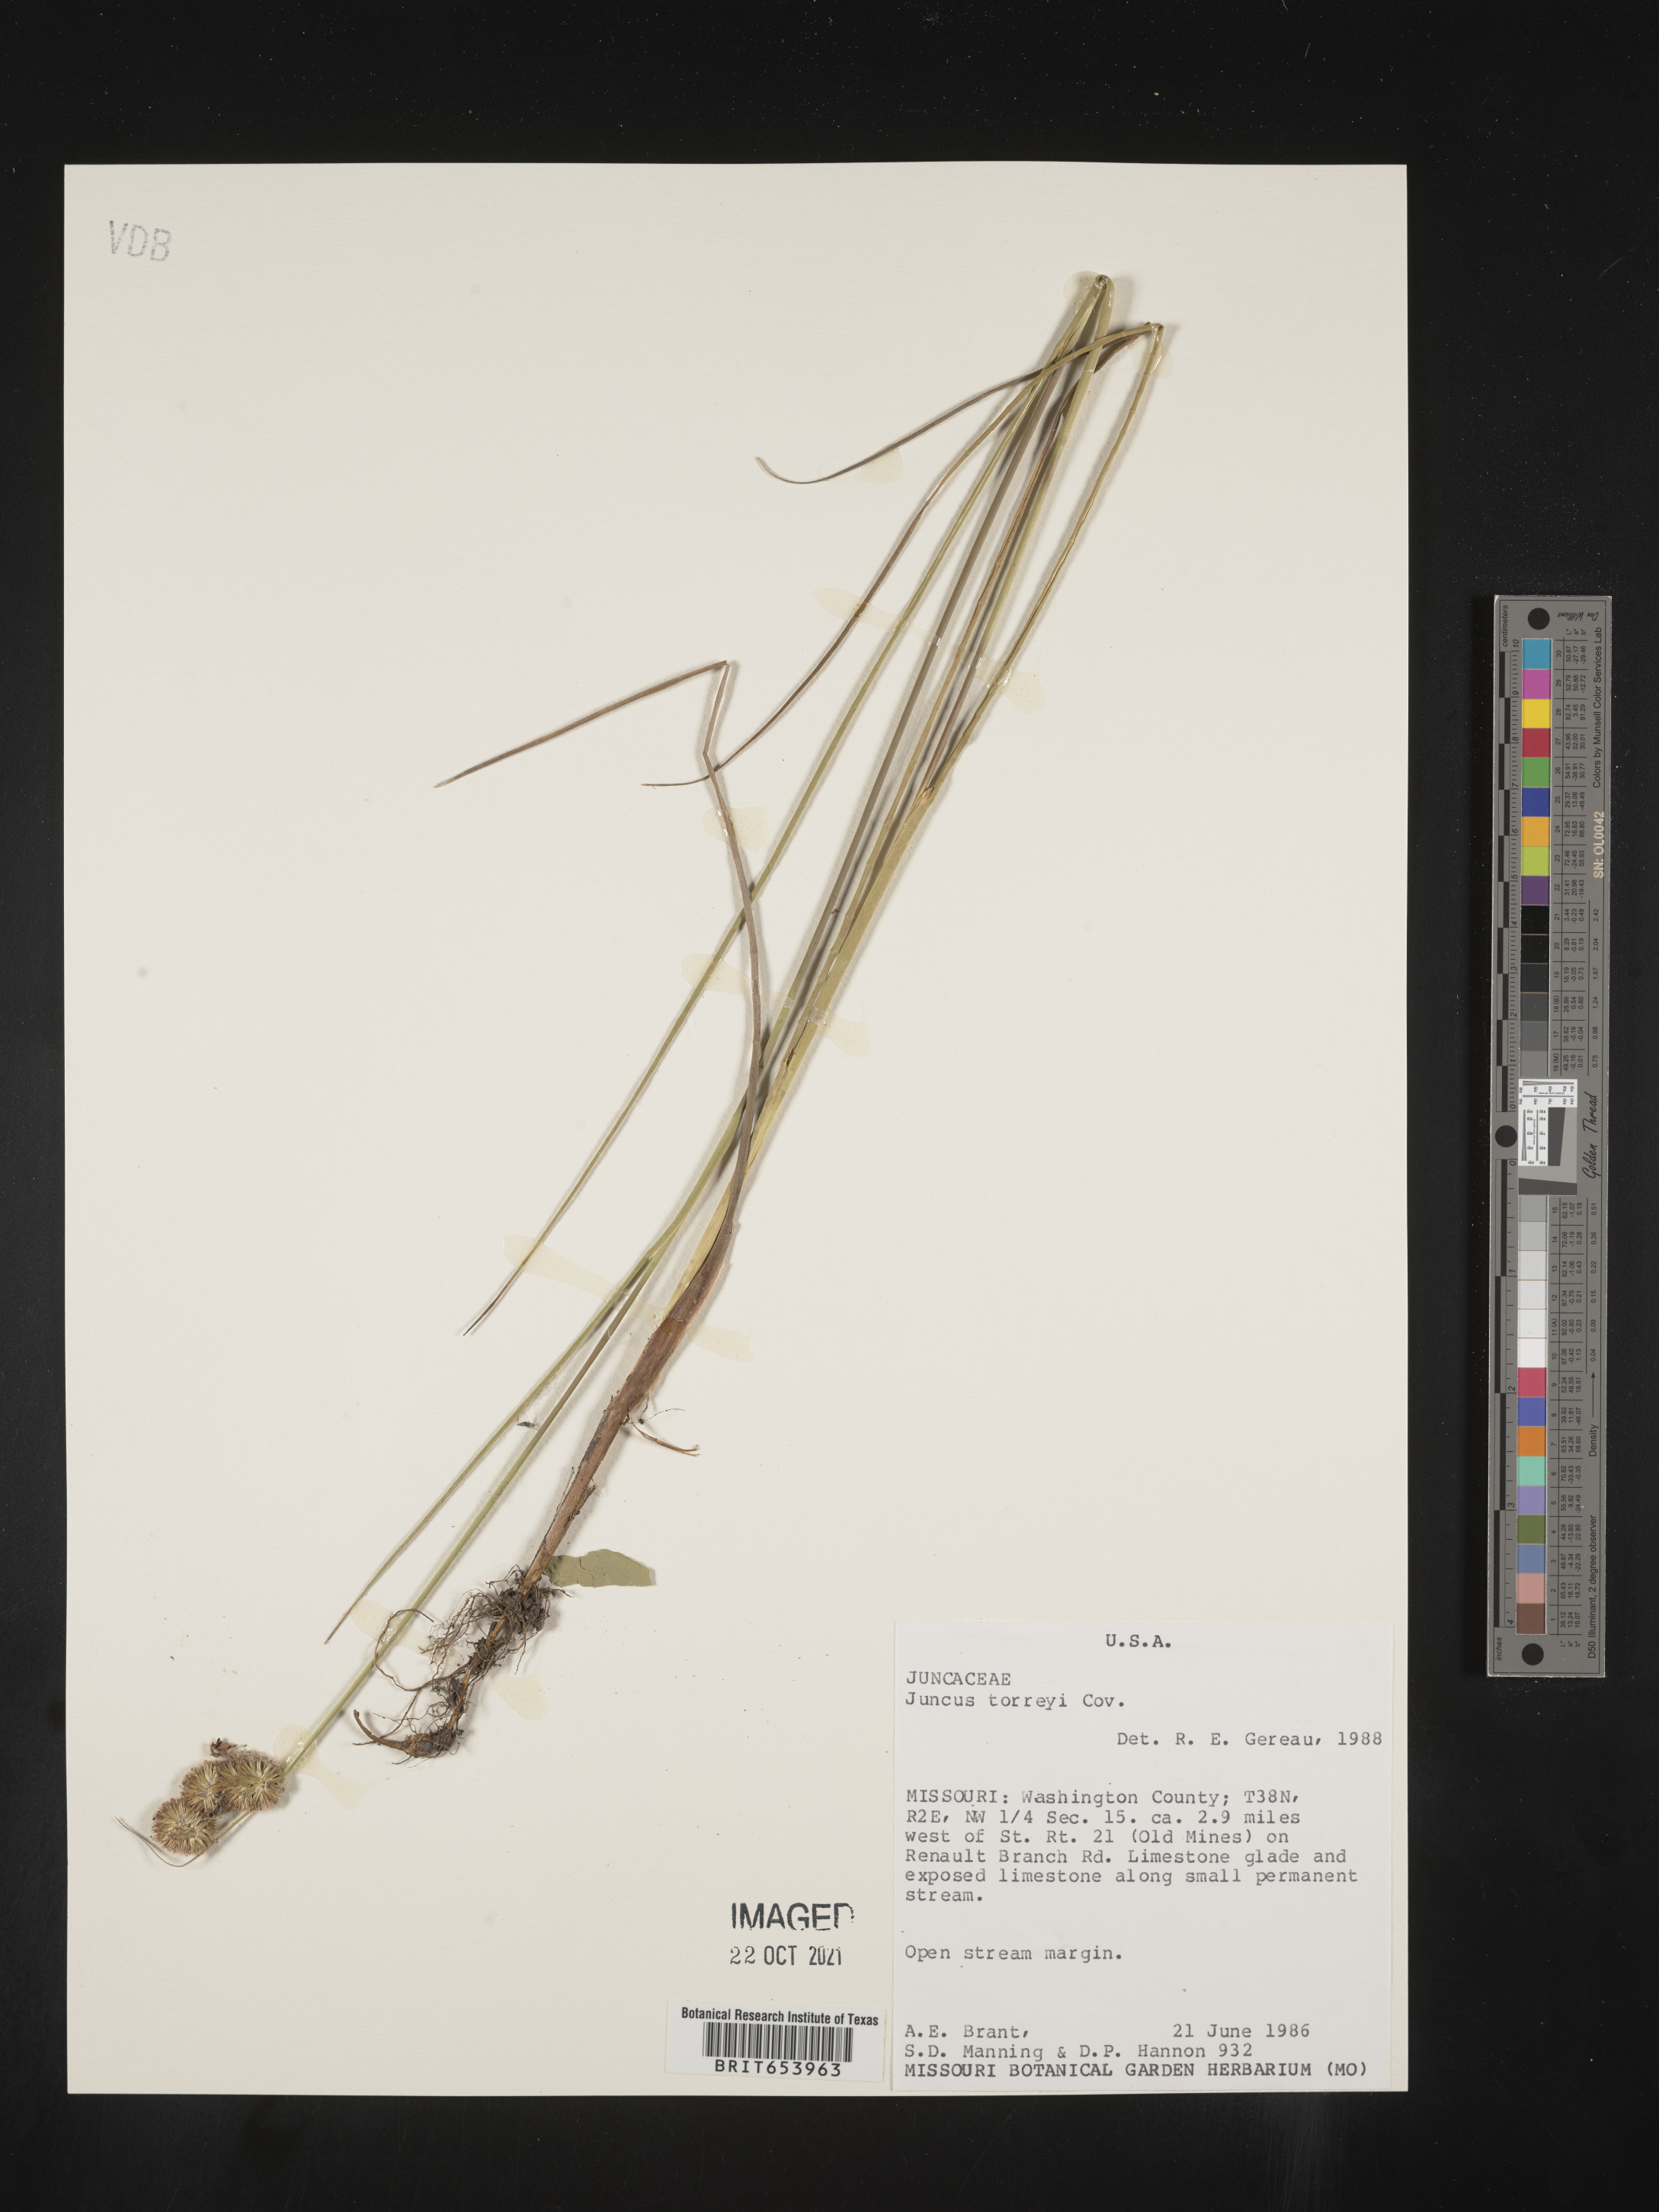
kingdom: Plantae
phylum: Tracheophyta
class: Liliopsida
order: Poales
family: Juncaceae
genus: Juncus
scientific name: Juncus torreyi
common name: Torrey's rush
